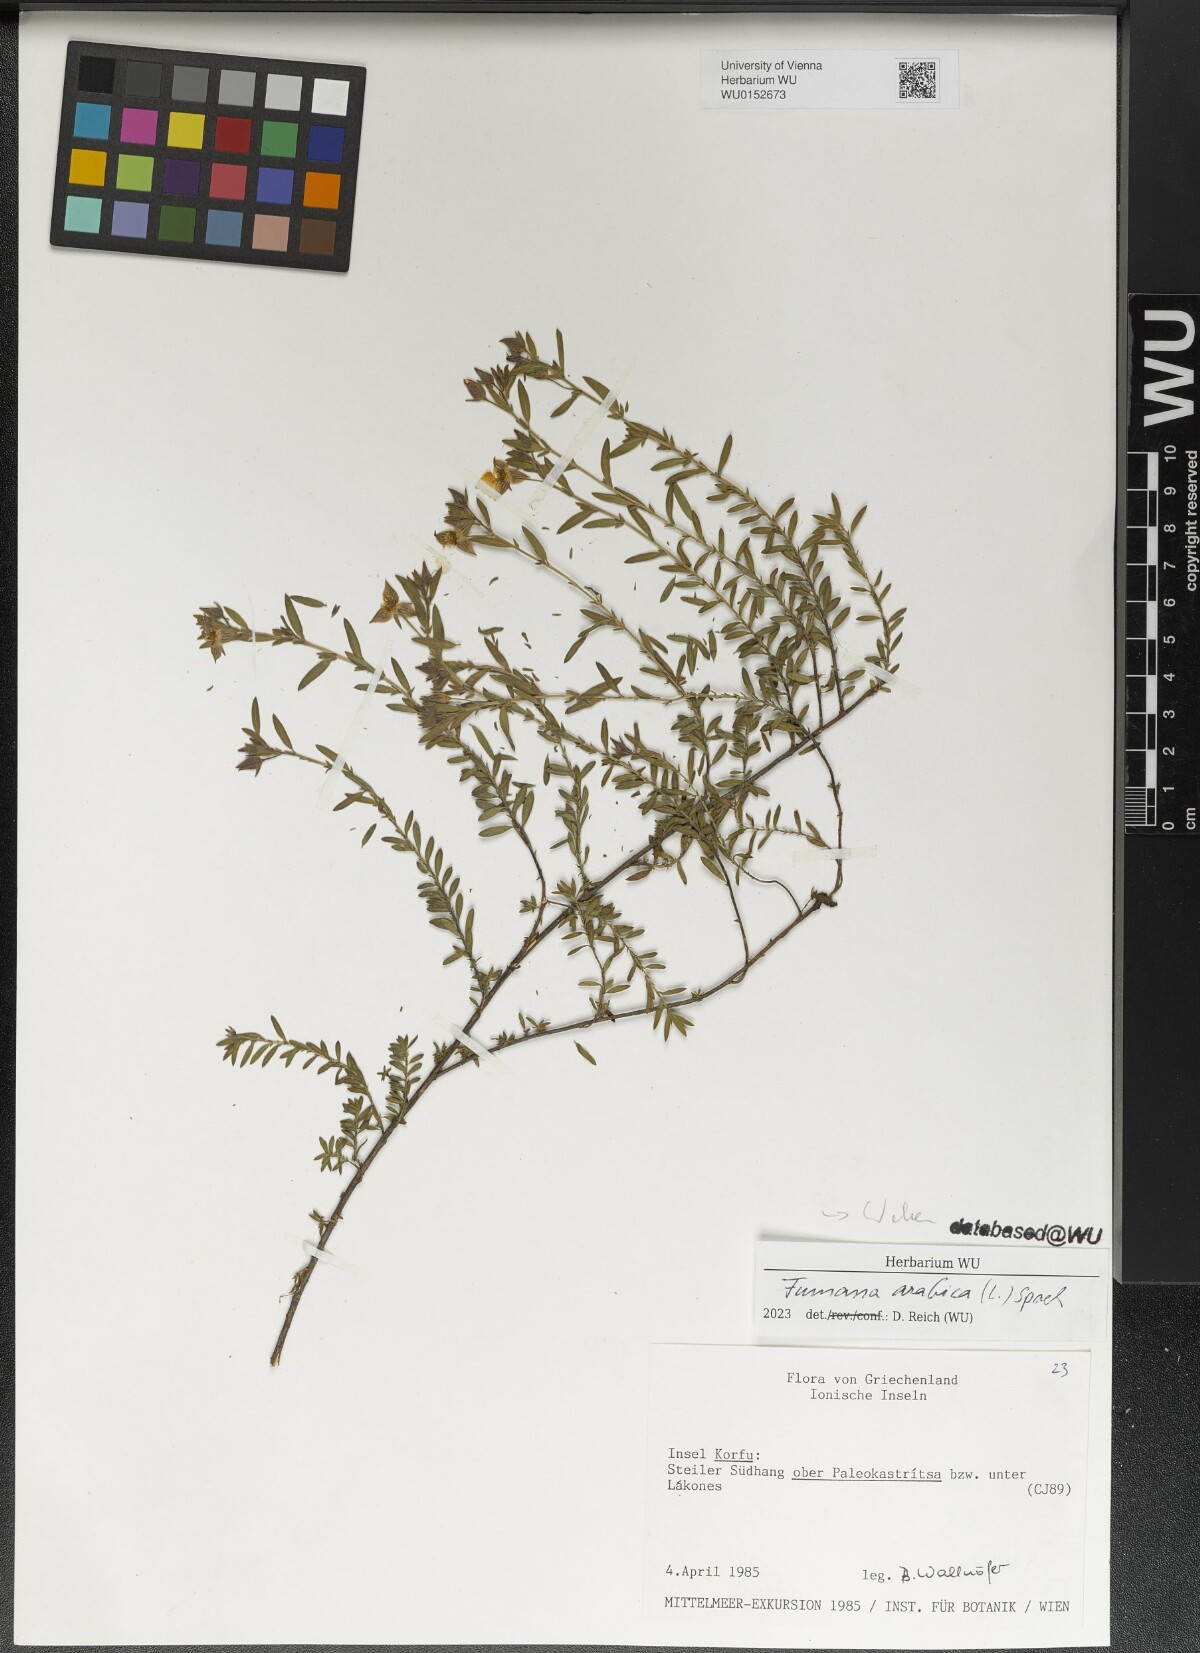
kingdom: Plantae
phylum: Tracheophyta
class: Magnoliopsida
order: Malvales
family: Cistaceae
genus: Fumana
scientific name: Fumana arabica
